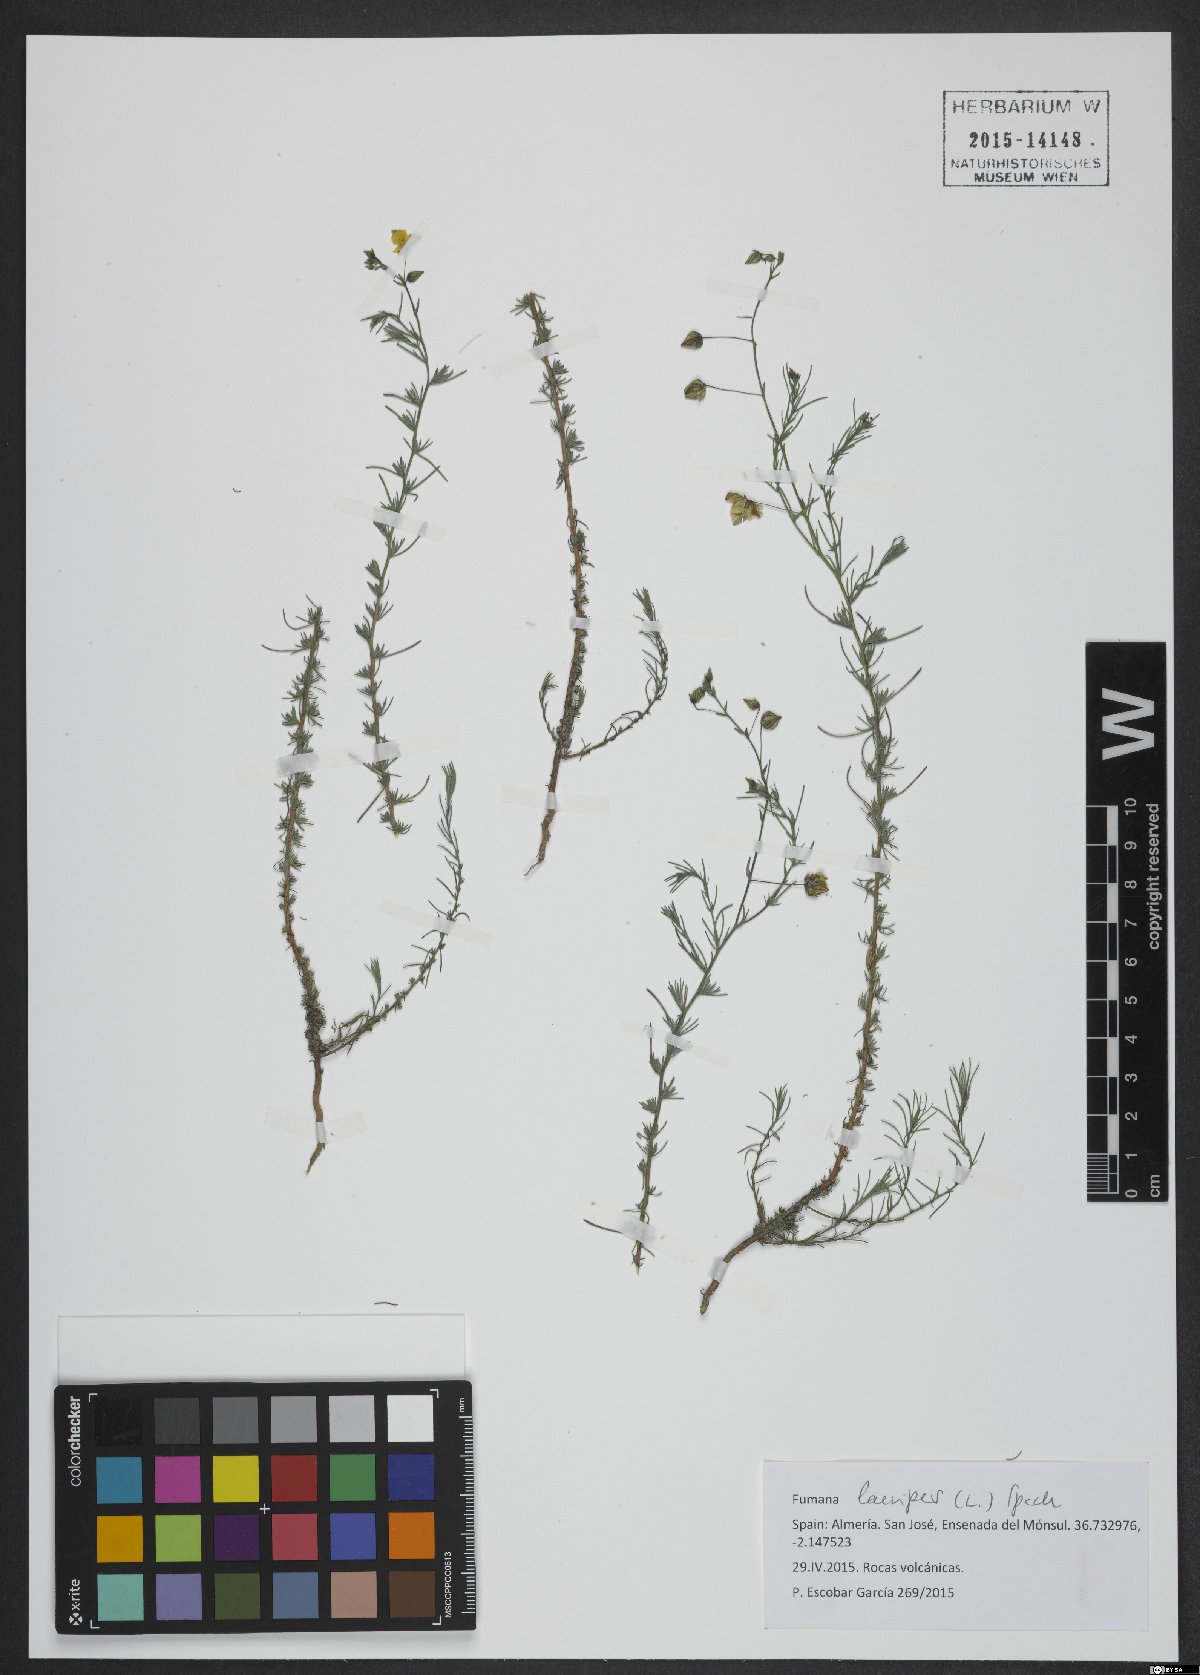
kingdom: Plantae
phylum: Tracheophyta
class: Magnoliopsida
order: Malvales
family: Cistaceae
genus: Fumana
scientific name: Fumana laevipes
